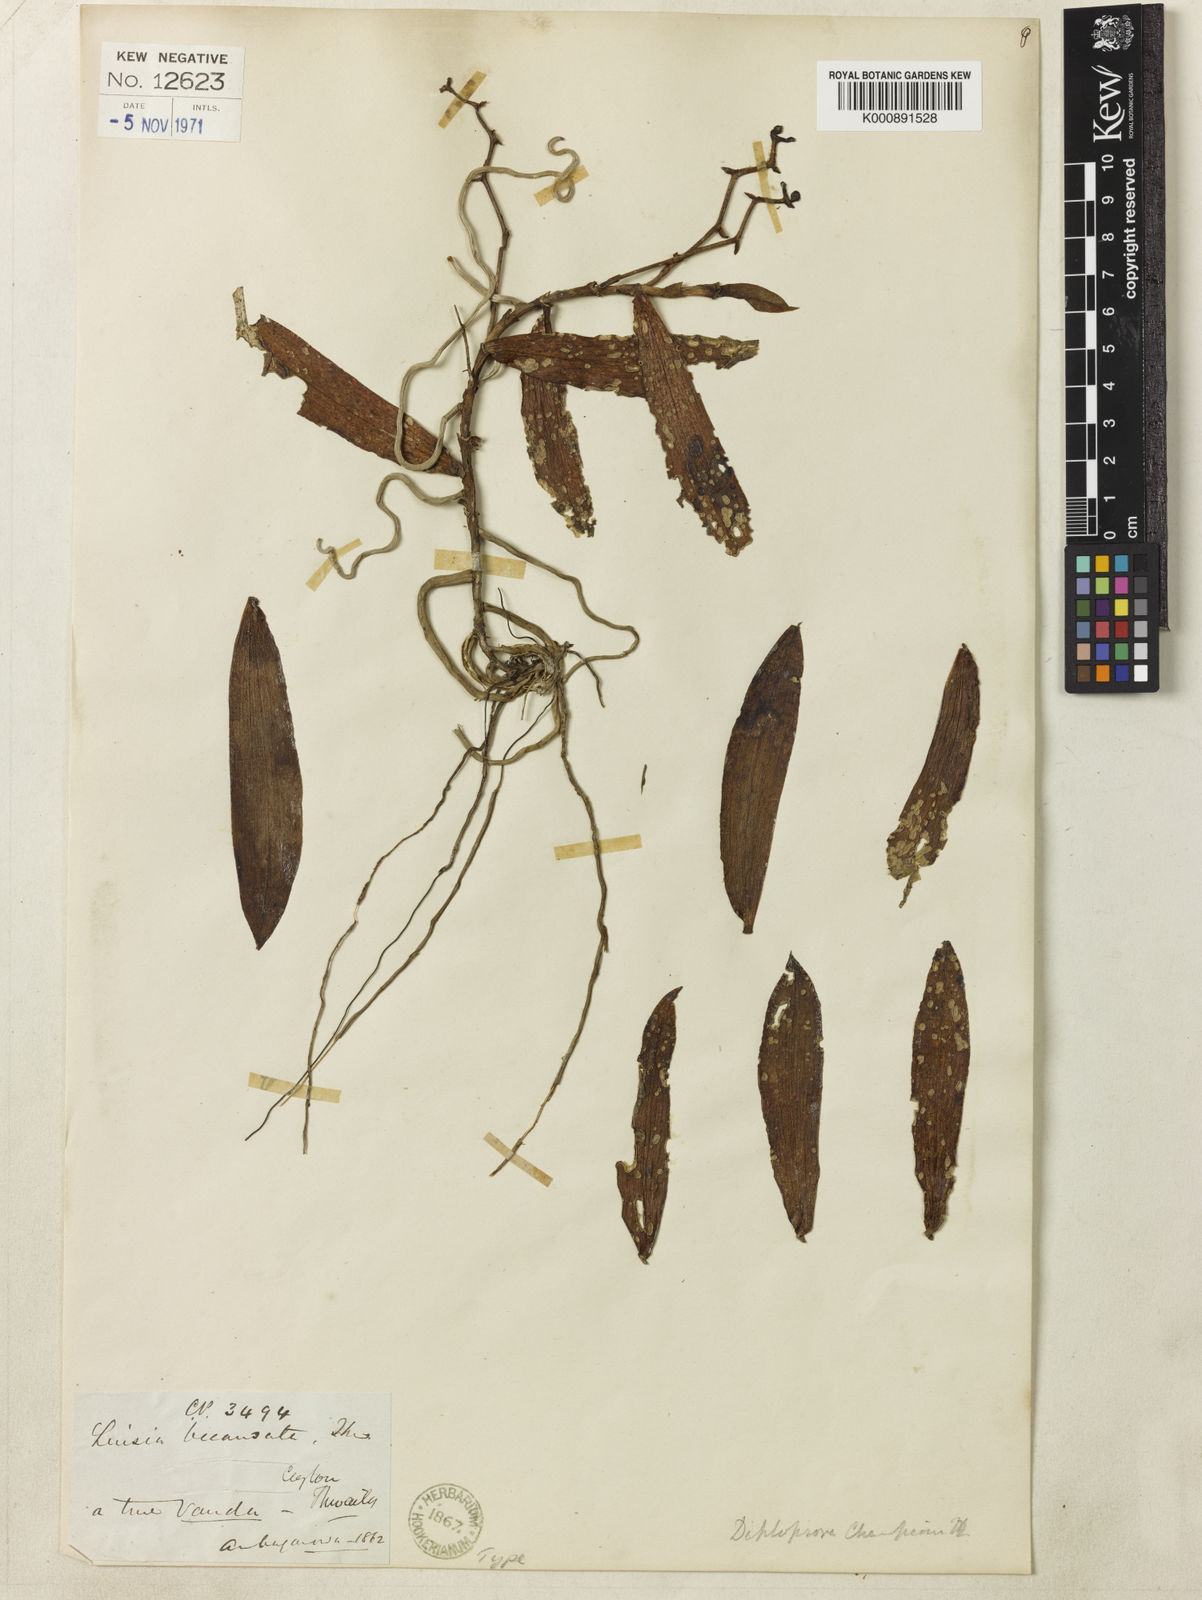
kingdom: Plantae
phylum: Tracheophyta
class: Liliopsida
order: Asparagales
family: Orchidaceae
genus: Diploprora
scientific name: Diploprora championii
